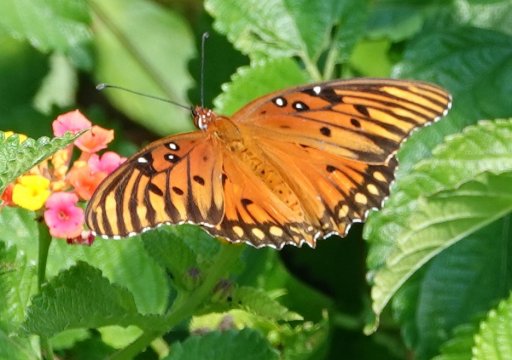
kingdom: Animalia
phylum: Arthropoda
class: Insecta
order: Lepidoptera
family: Nymphalidae
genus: Dione
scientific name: Dione vanillae
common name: Gulf Fritillary
